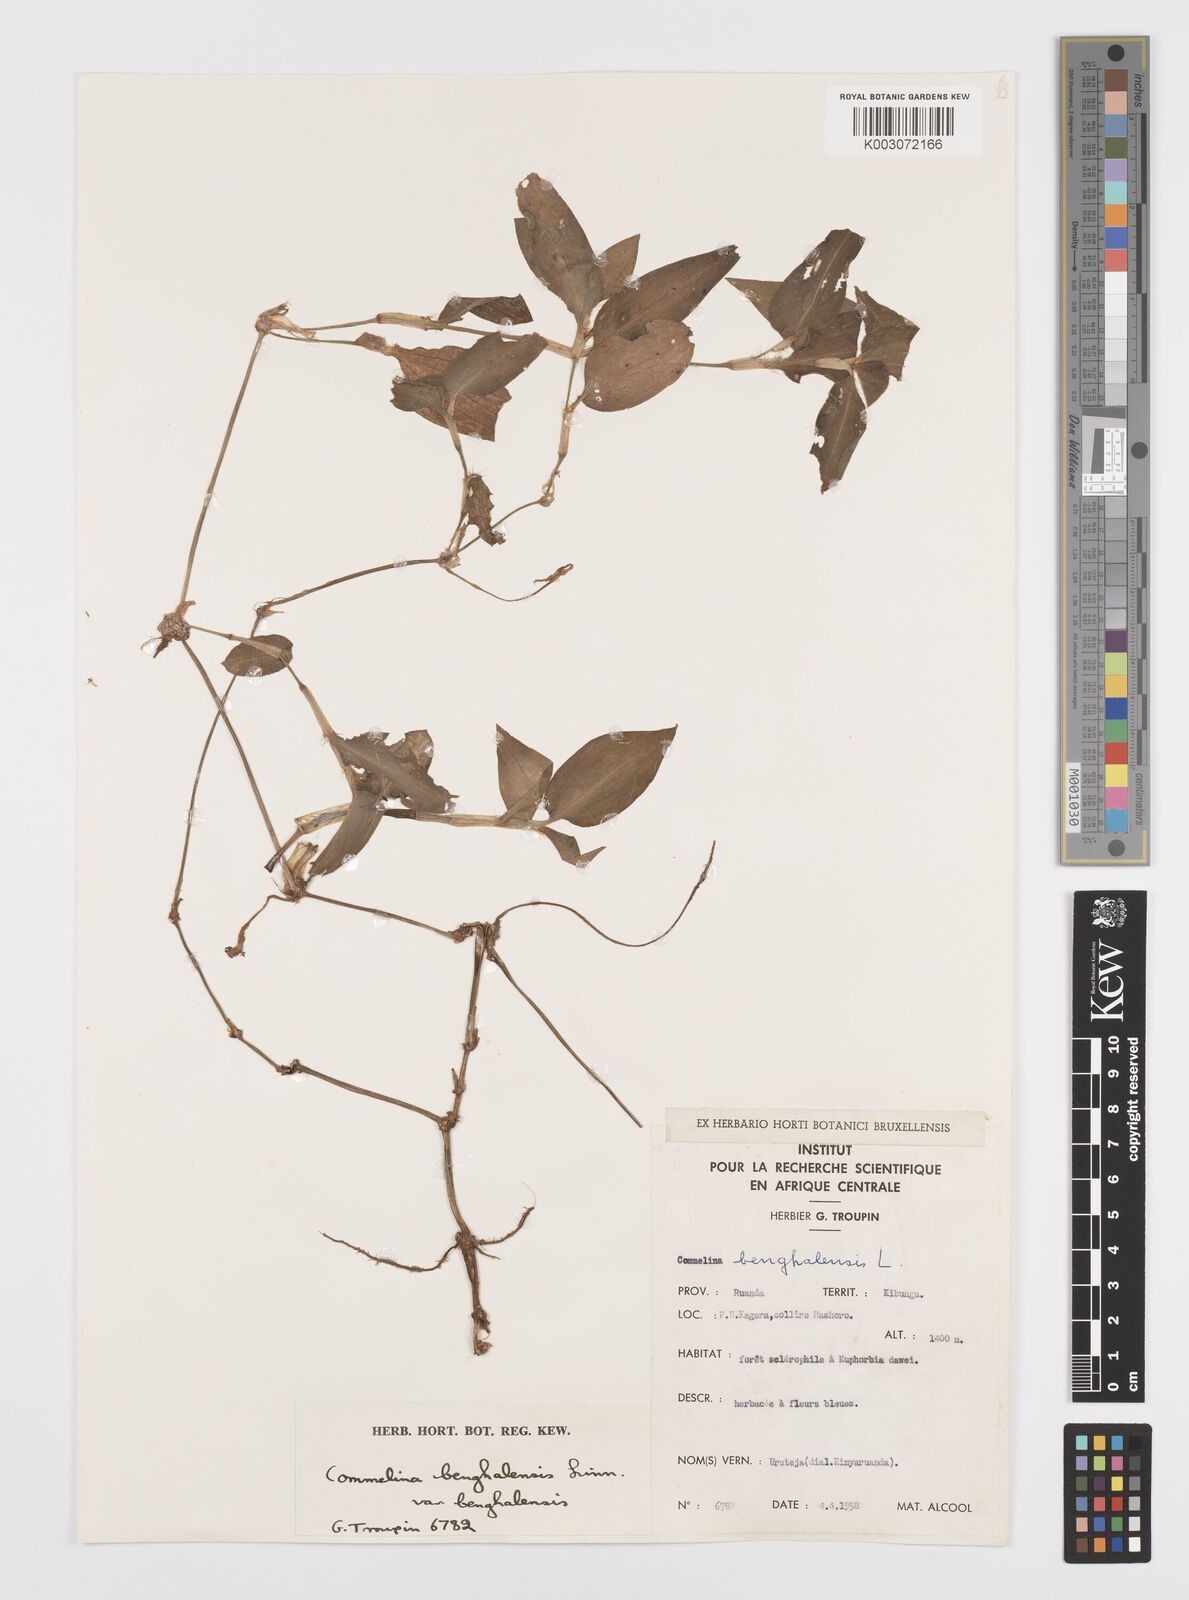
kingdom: Plantae
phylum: Tracheophyta
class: Liliopsida
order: Commelinales
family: Commelinaceae
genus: Commelina
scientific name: Commelina benghalensis
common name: Jio
